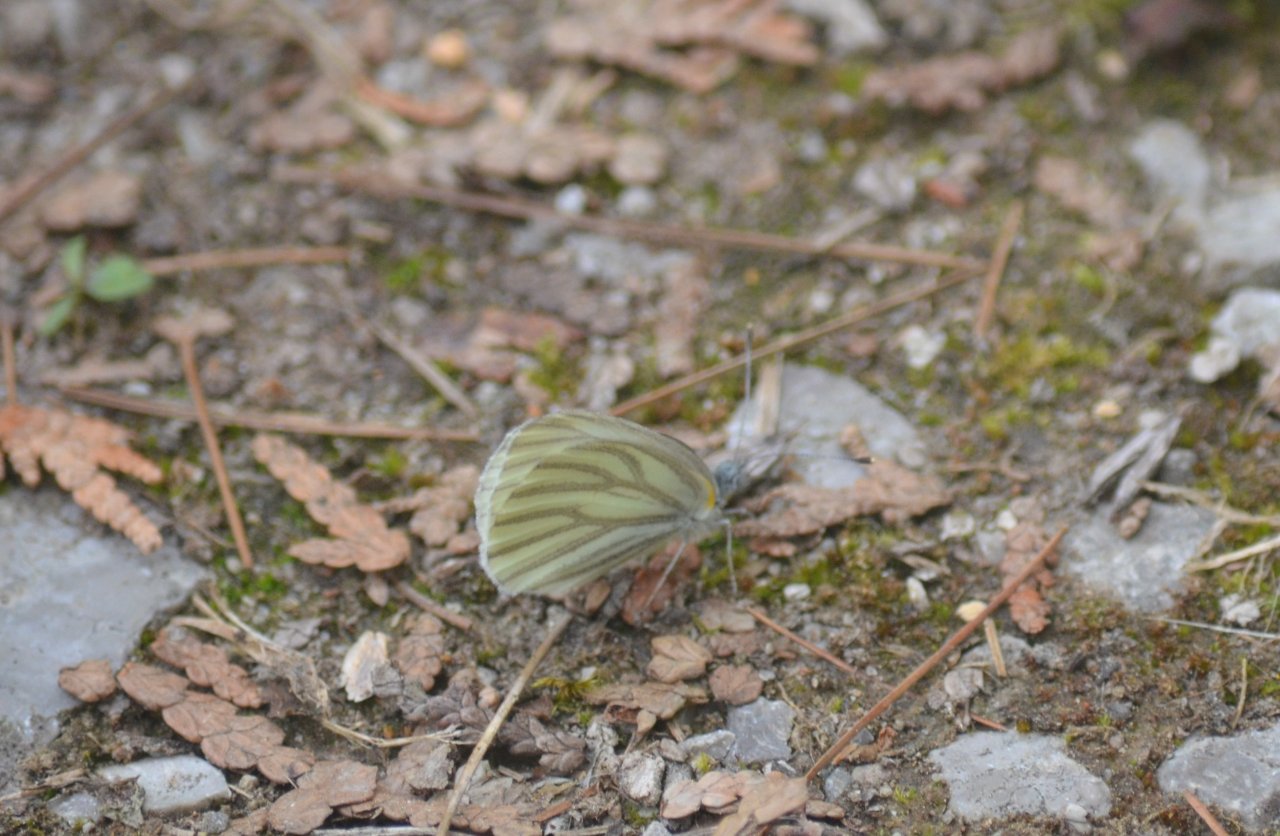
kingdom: Animalia
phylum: Arthropoda
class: Insecta
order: Lepidoptera
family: Pieridae
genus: Pieris
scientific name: Pieris oleracea
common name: Mustard White
